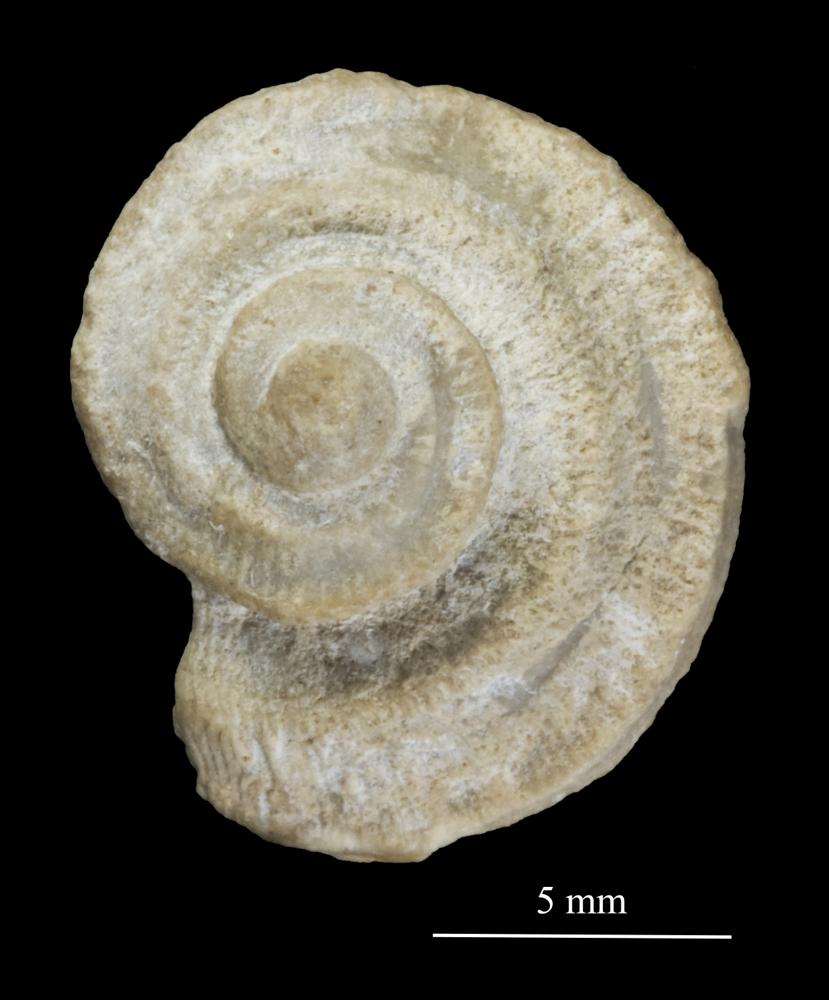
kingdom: Animalia
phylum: Mollusca
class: Gastropoda
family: Trochonematidae
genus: Trochonema
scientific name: Trochonema panderi
